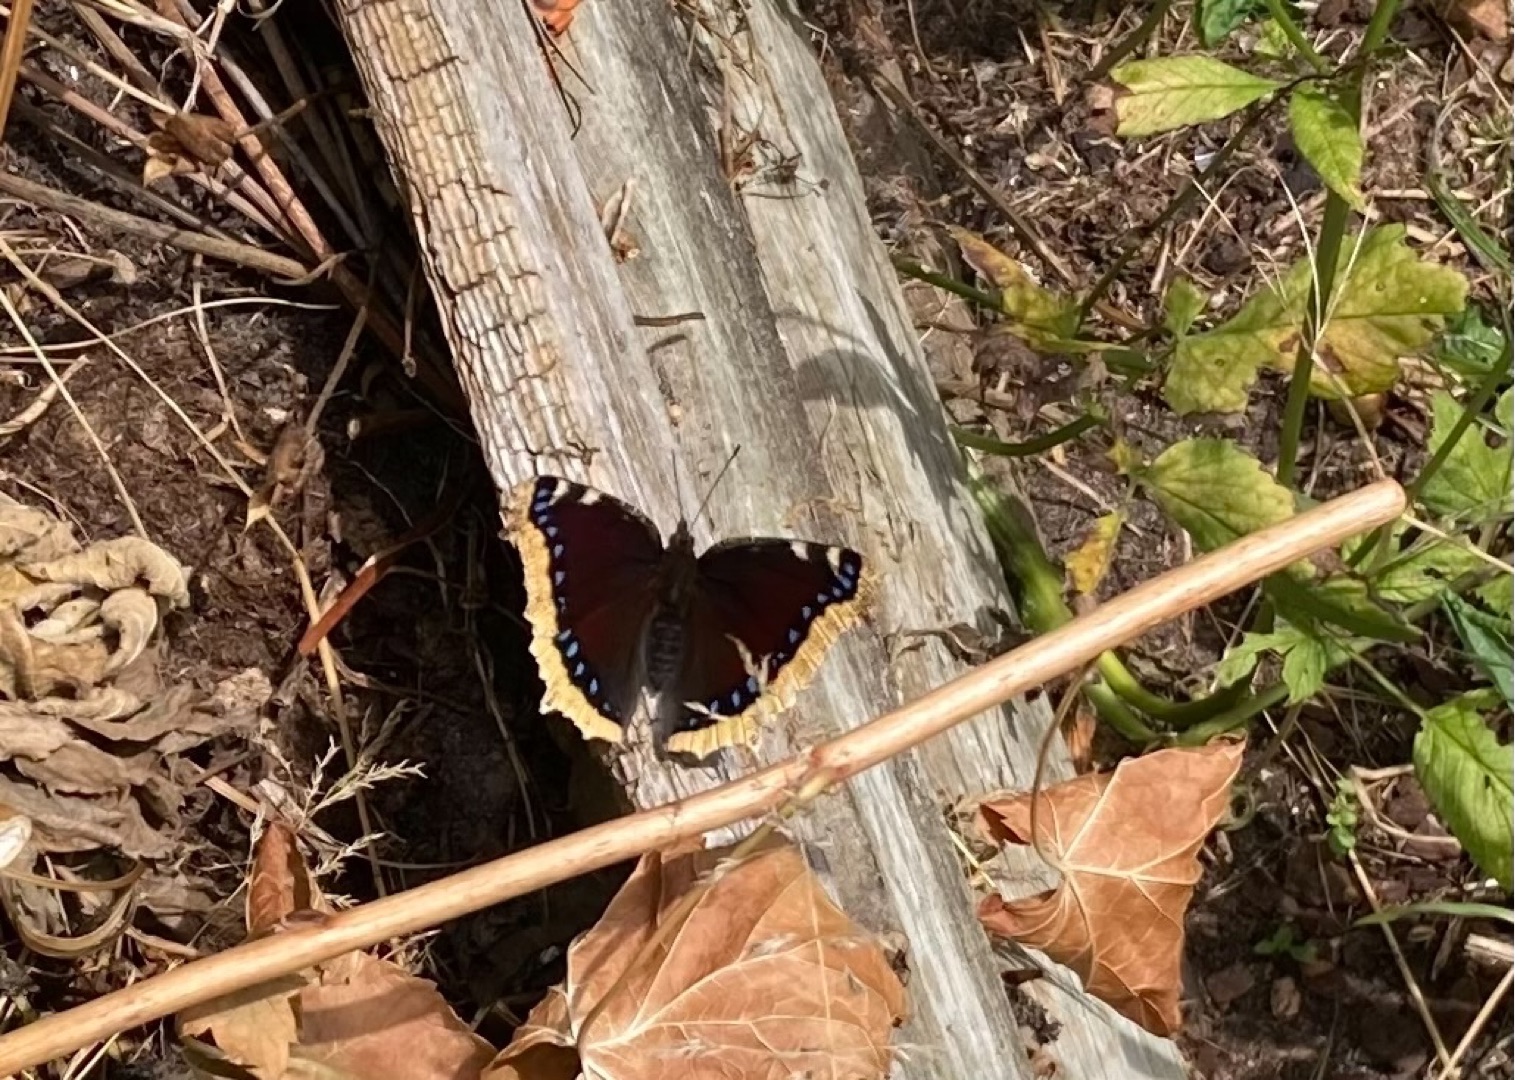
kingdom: Animalia
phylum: Arthropoda
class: Insecta
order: Lepidoptera
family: Nymphalidae
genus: Nymphalis
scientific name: Nymphalis antiopa
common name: Sørgekåbe
